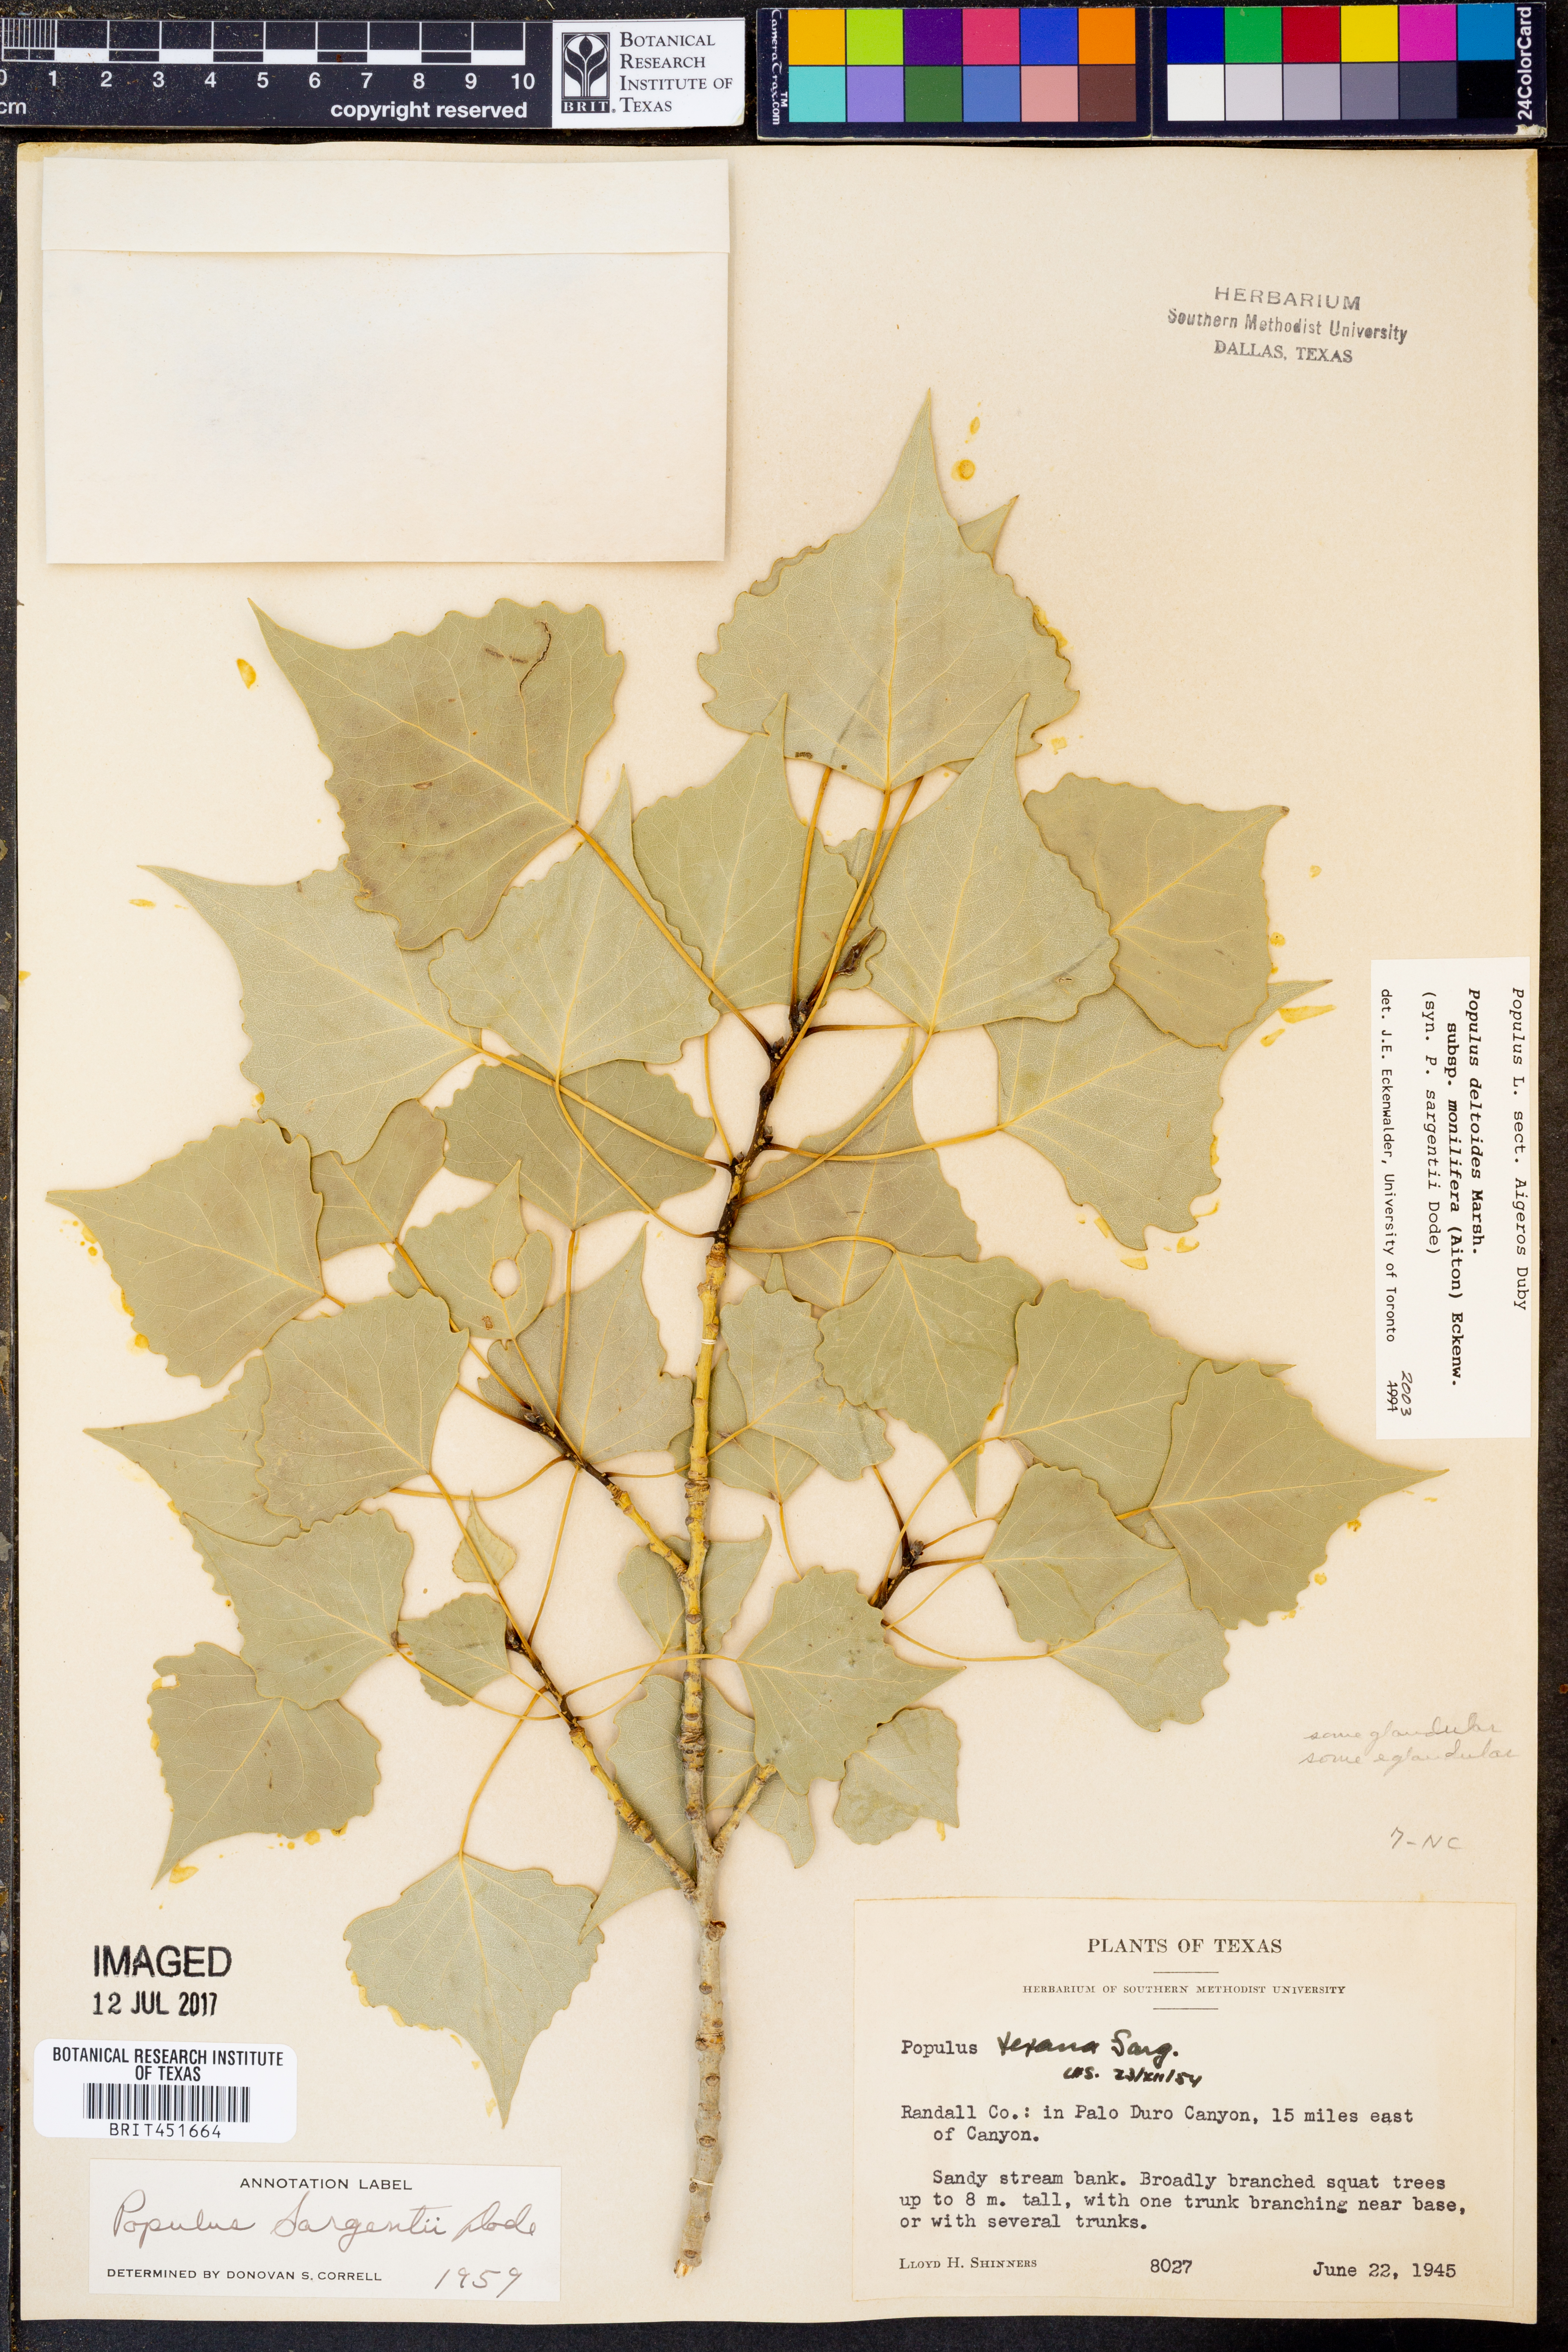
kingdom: Plantae
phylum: Tracheophyta
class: Magnoliopsida
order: Malpighiales
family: Salicaceae
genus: Populus
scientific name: Populus deltoides
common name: Eastern cottonwood
